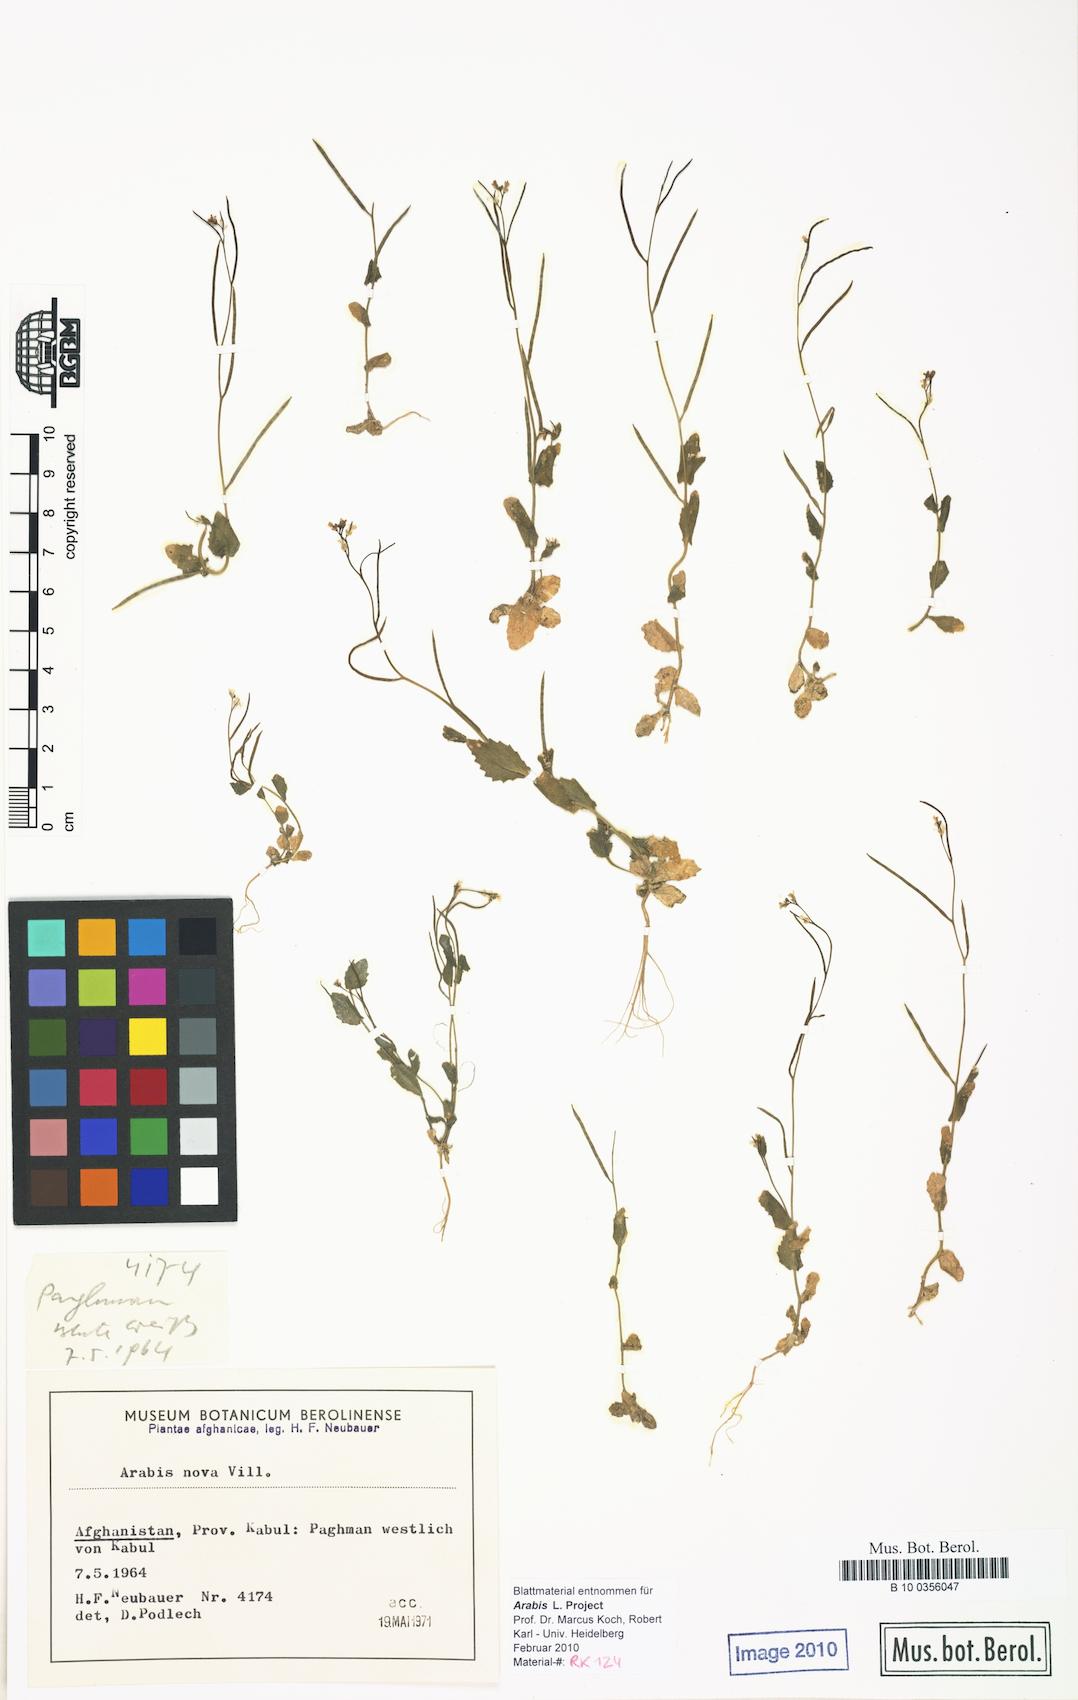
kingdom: Plantae
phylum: Tracheophyta
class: Magnoliopsida
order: Brassicales
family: Brassicaceae
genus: Arabis
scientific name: Arabis nova
